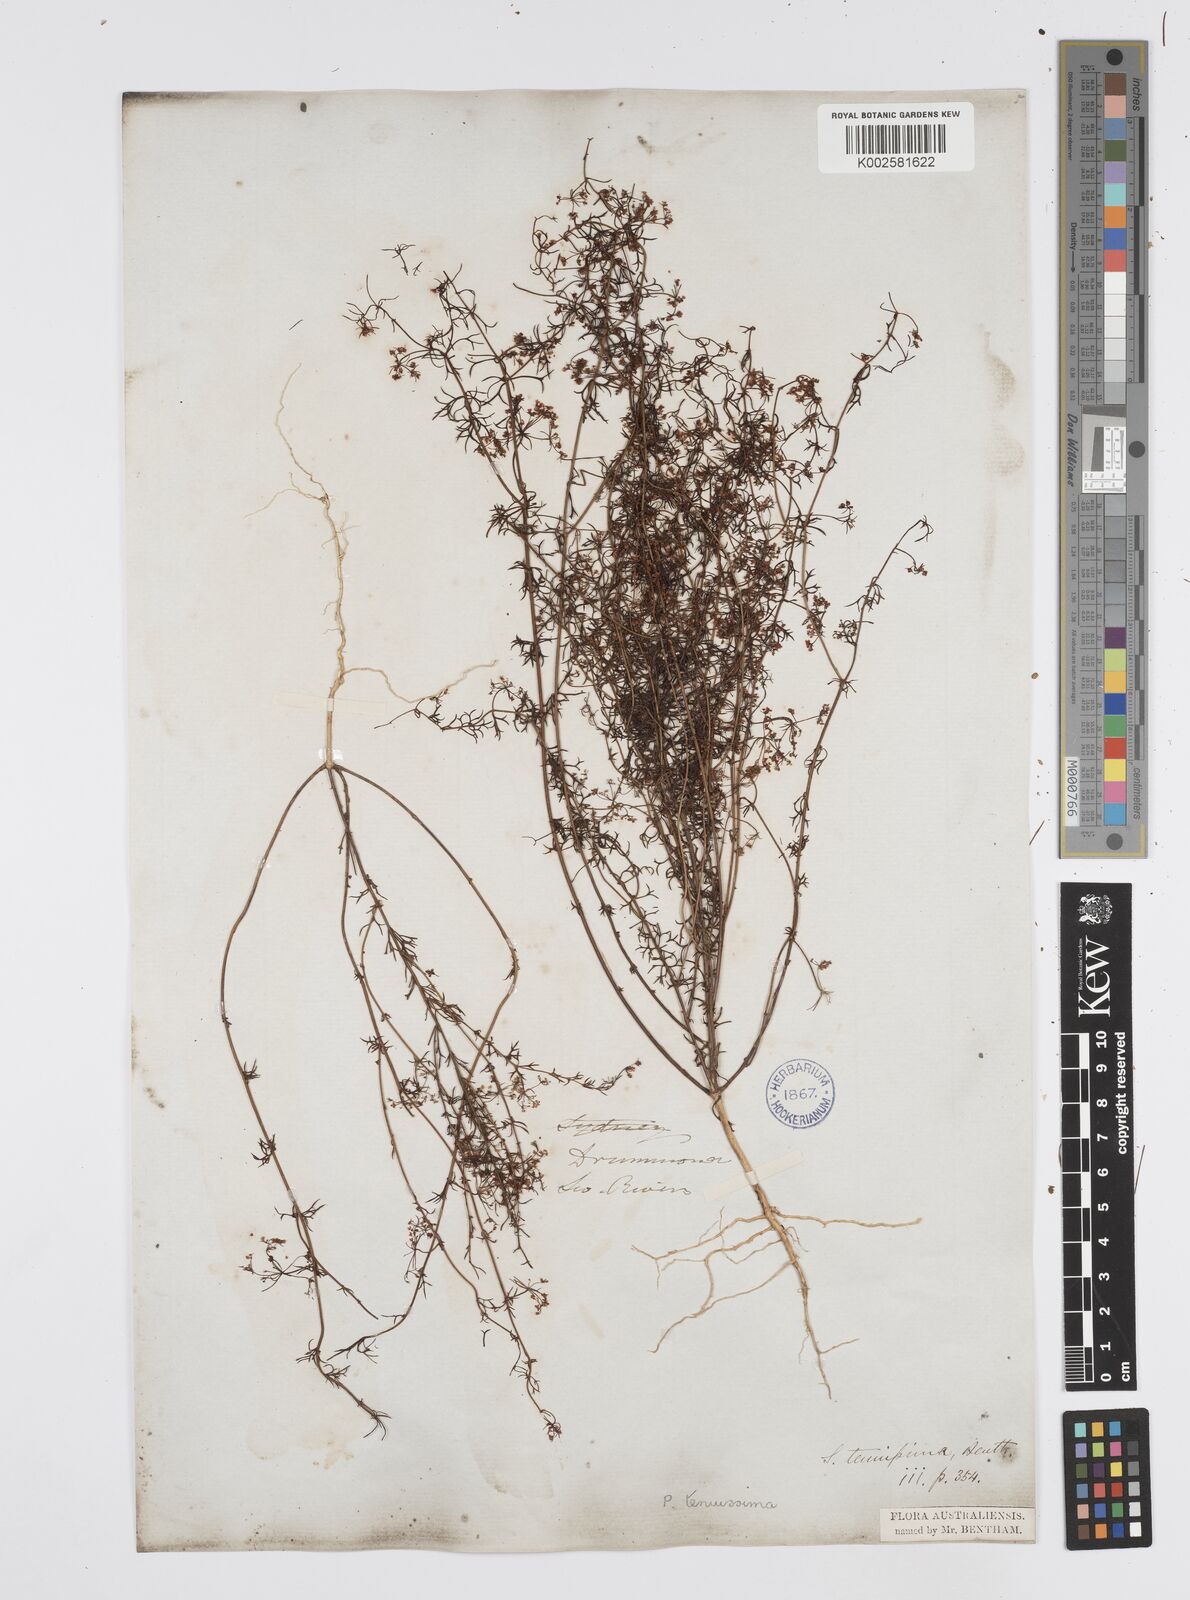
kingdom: Plantae
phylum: Tracheophyta
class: Magnoliopsida
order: Apiales
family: Apiaceae
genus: Platysace
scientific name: Platysace tenuissima
